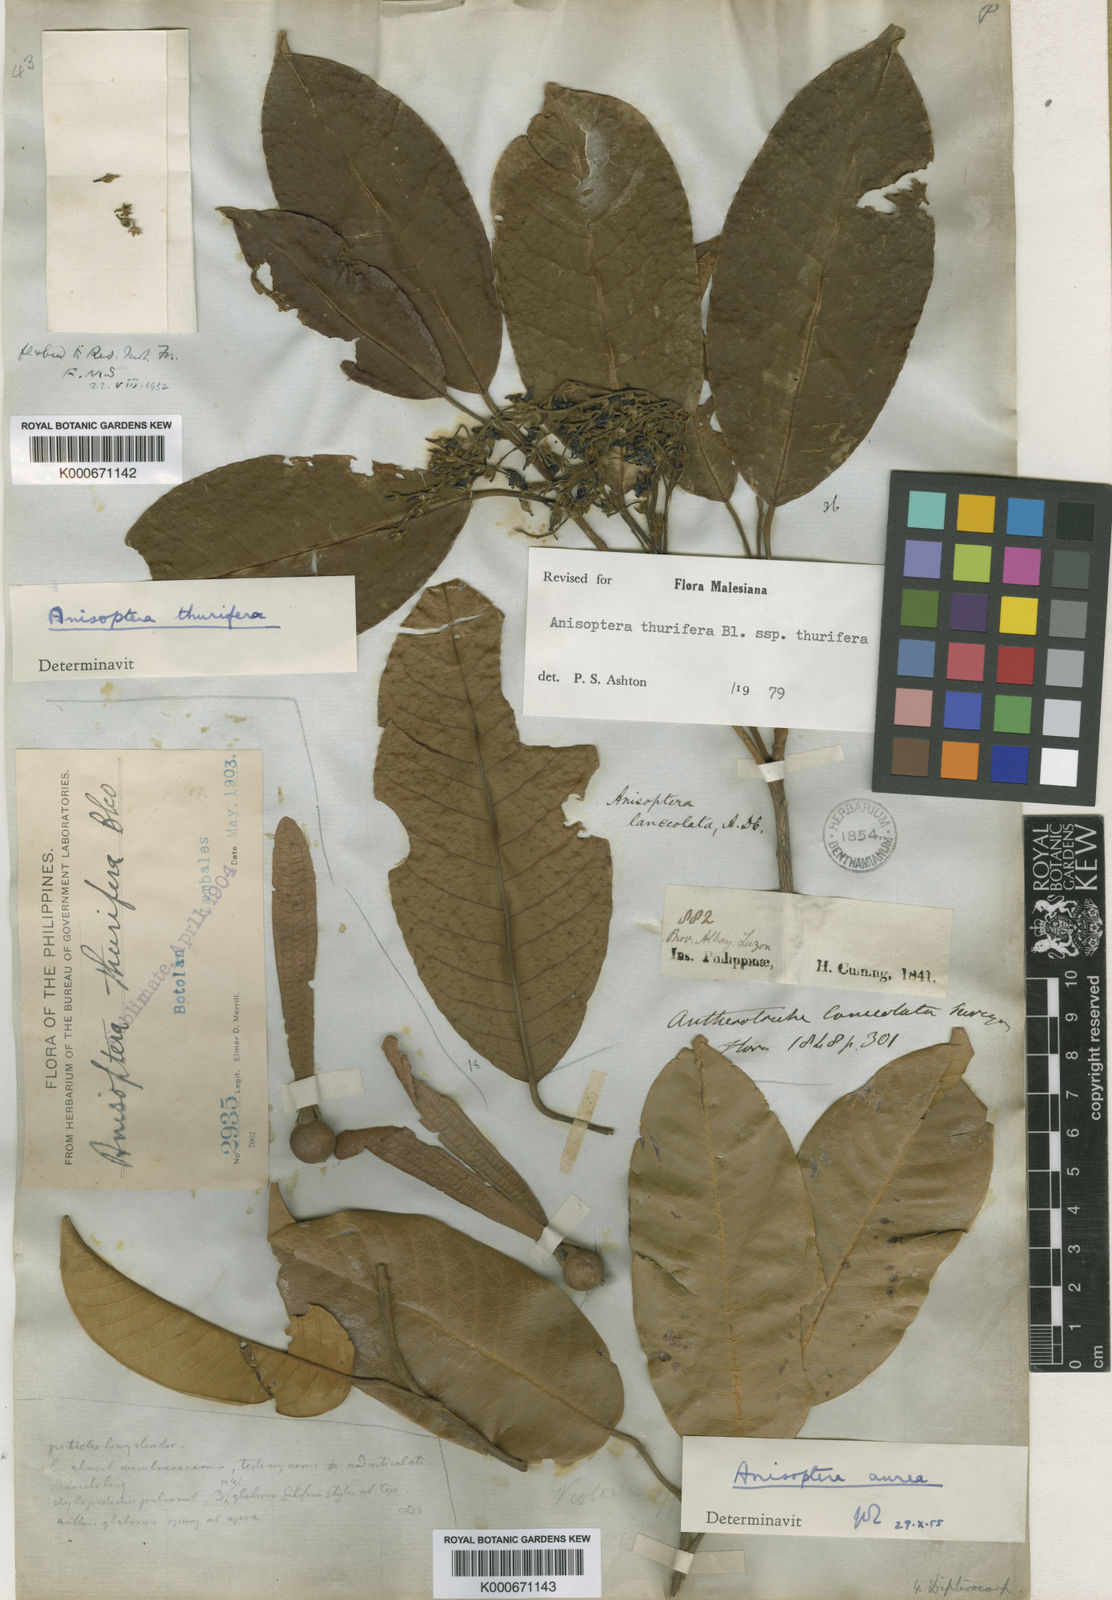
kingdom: Plantae
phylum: Tracheophyta
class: Magnoliopsida
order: Malvales
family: Dipterocarpaceae
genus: Anisoptera
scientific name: Anisoptera thurifera
